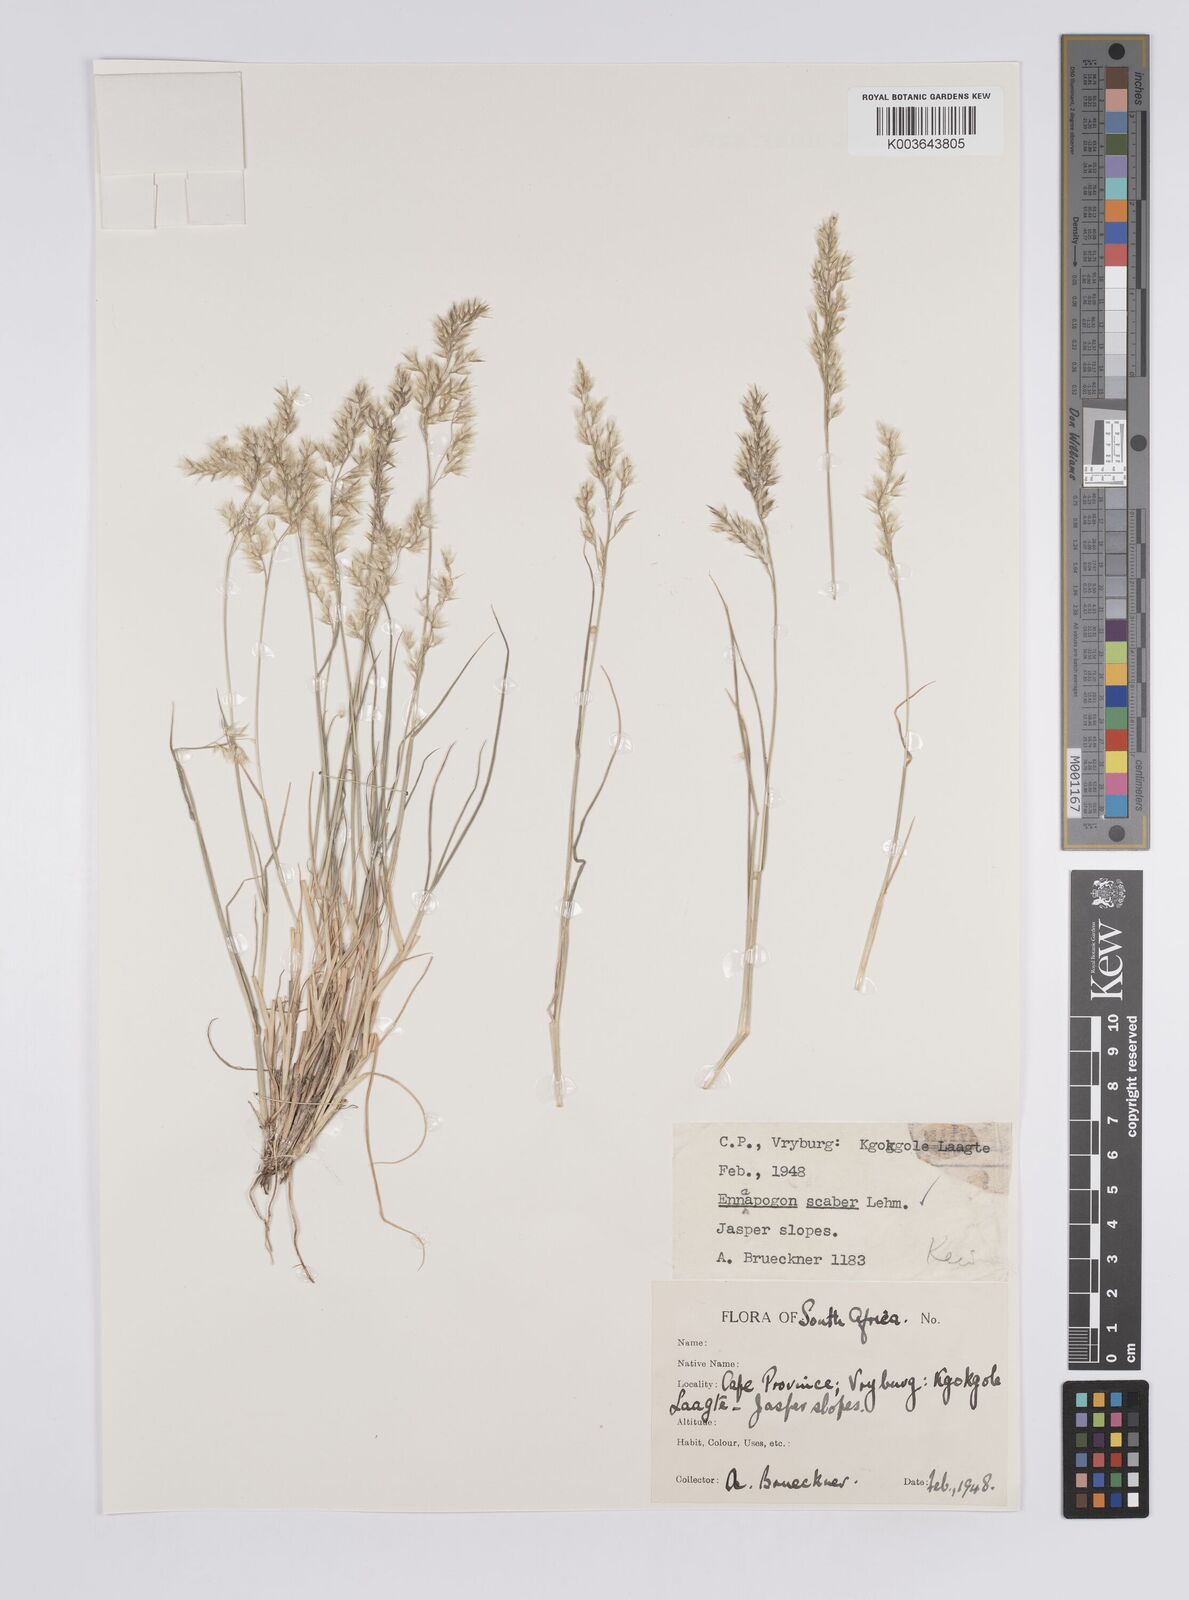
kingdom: Plantae
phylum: Tracheophyta
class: Liliopsida
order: Poales
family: Poaceae
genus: Enneapogon
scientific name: Enneapogon scaber
